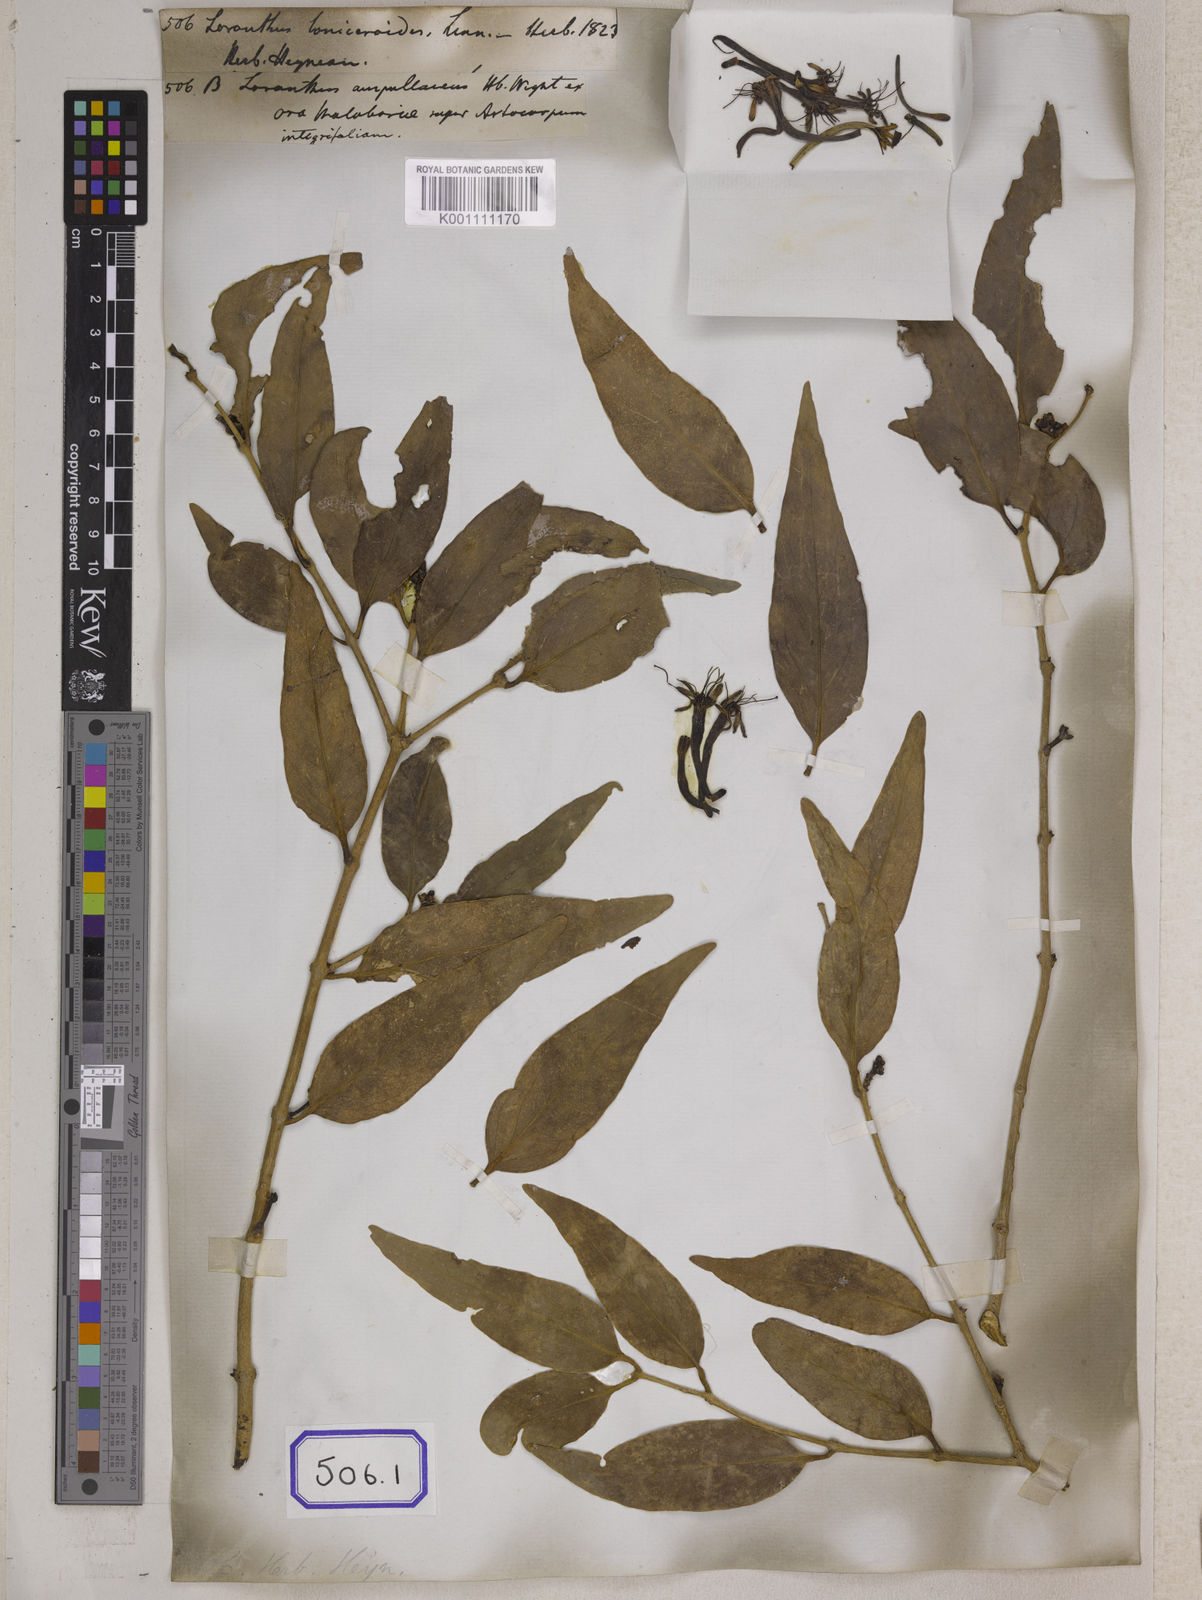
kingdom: Plantae
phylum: Tracheophyta
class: Magnoliopsida
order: Santalales
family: Loranthaceae
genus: Macrosolen
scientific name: Macrosolen parasiticus
